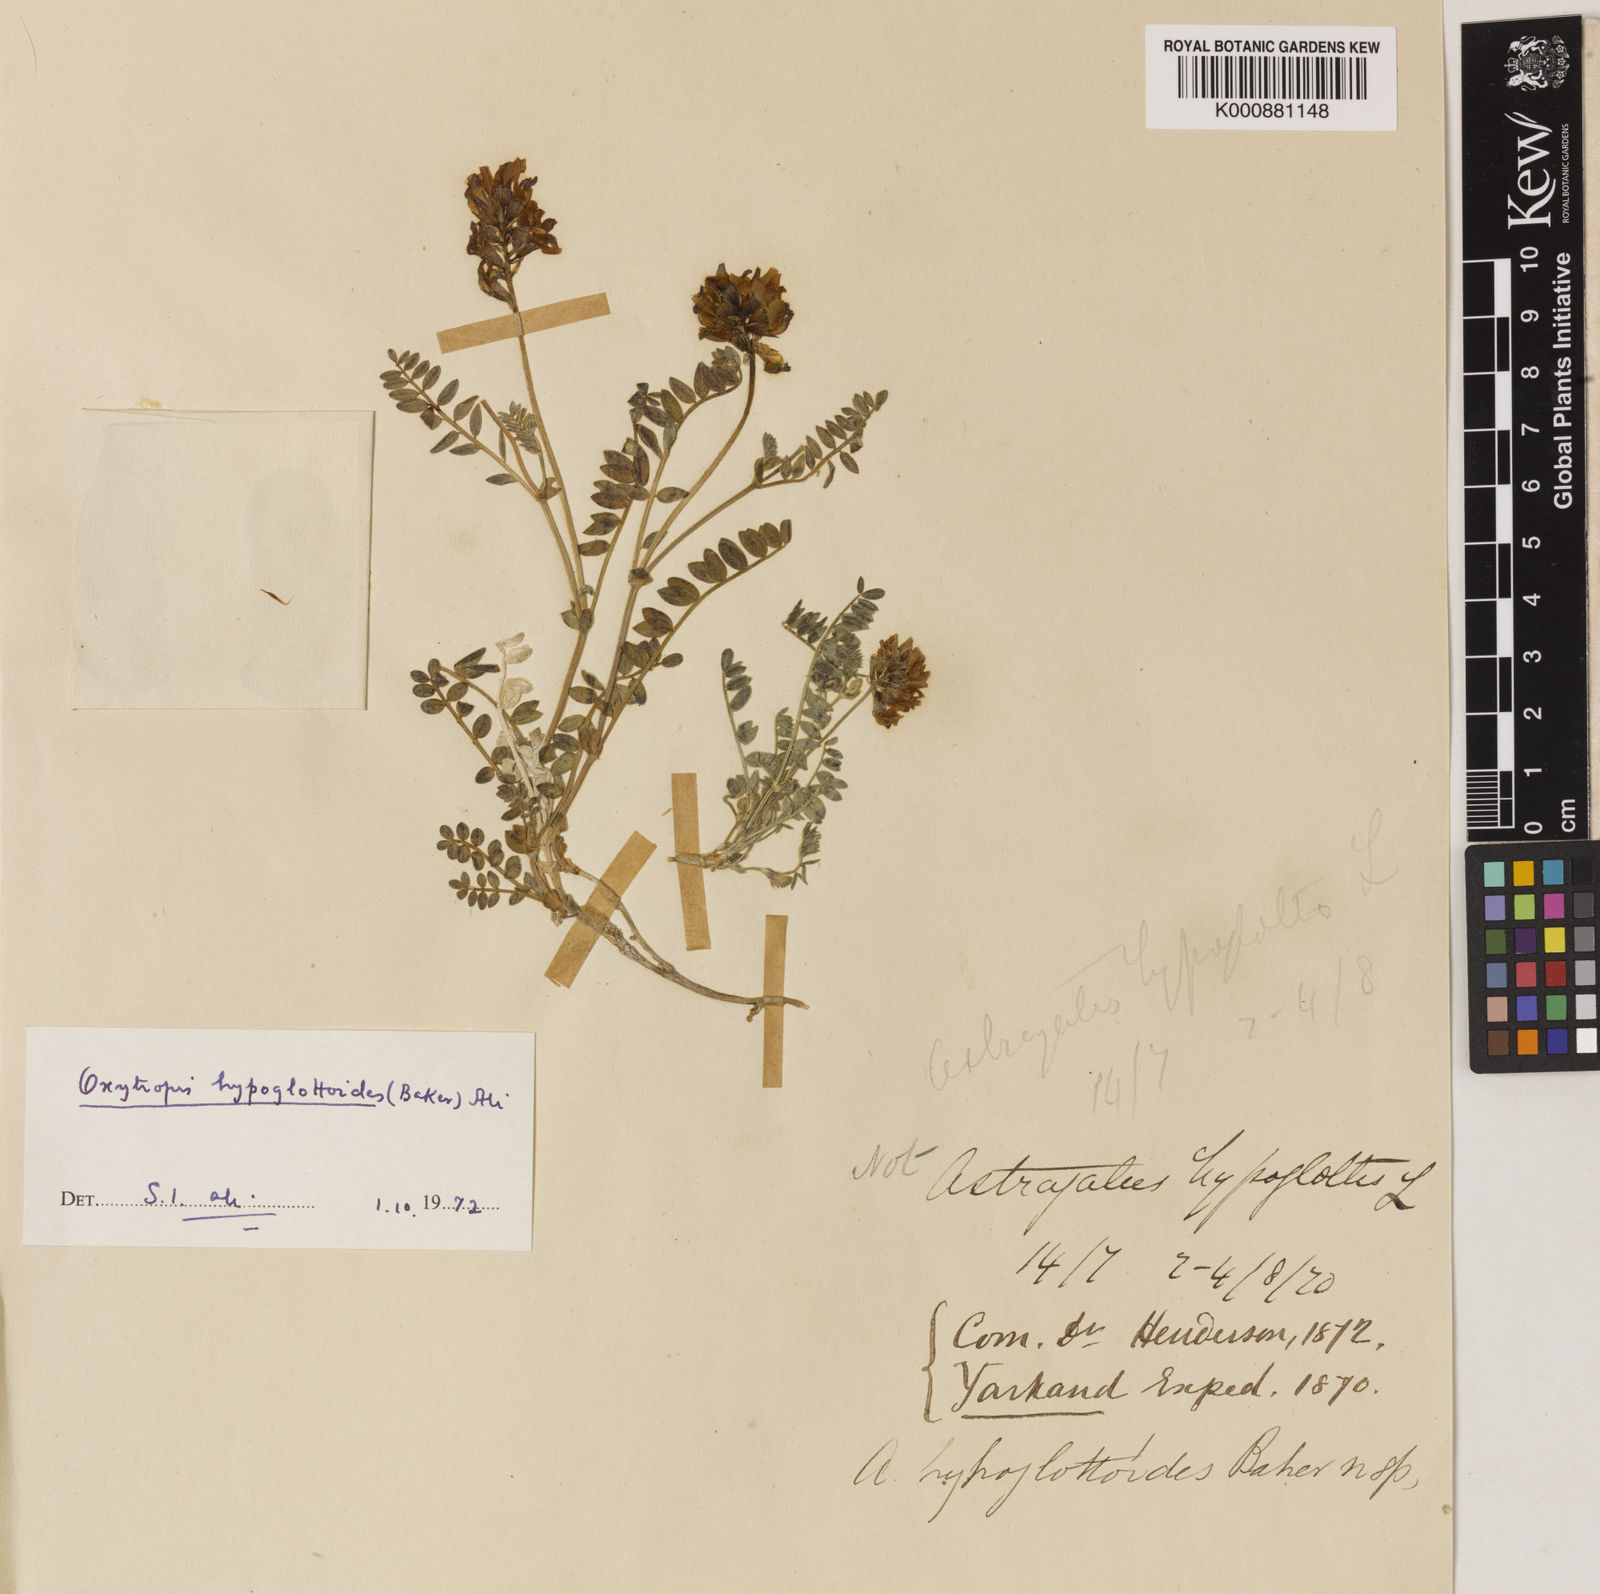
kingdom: Plantae
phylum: Tracheophyta
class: Magnoliopsida
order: Fabales
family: Fabaceae
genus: Oxytropis
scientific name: Oxytropis hypoglottoides
